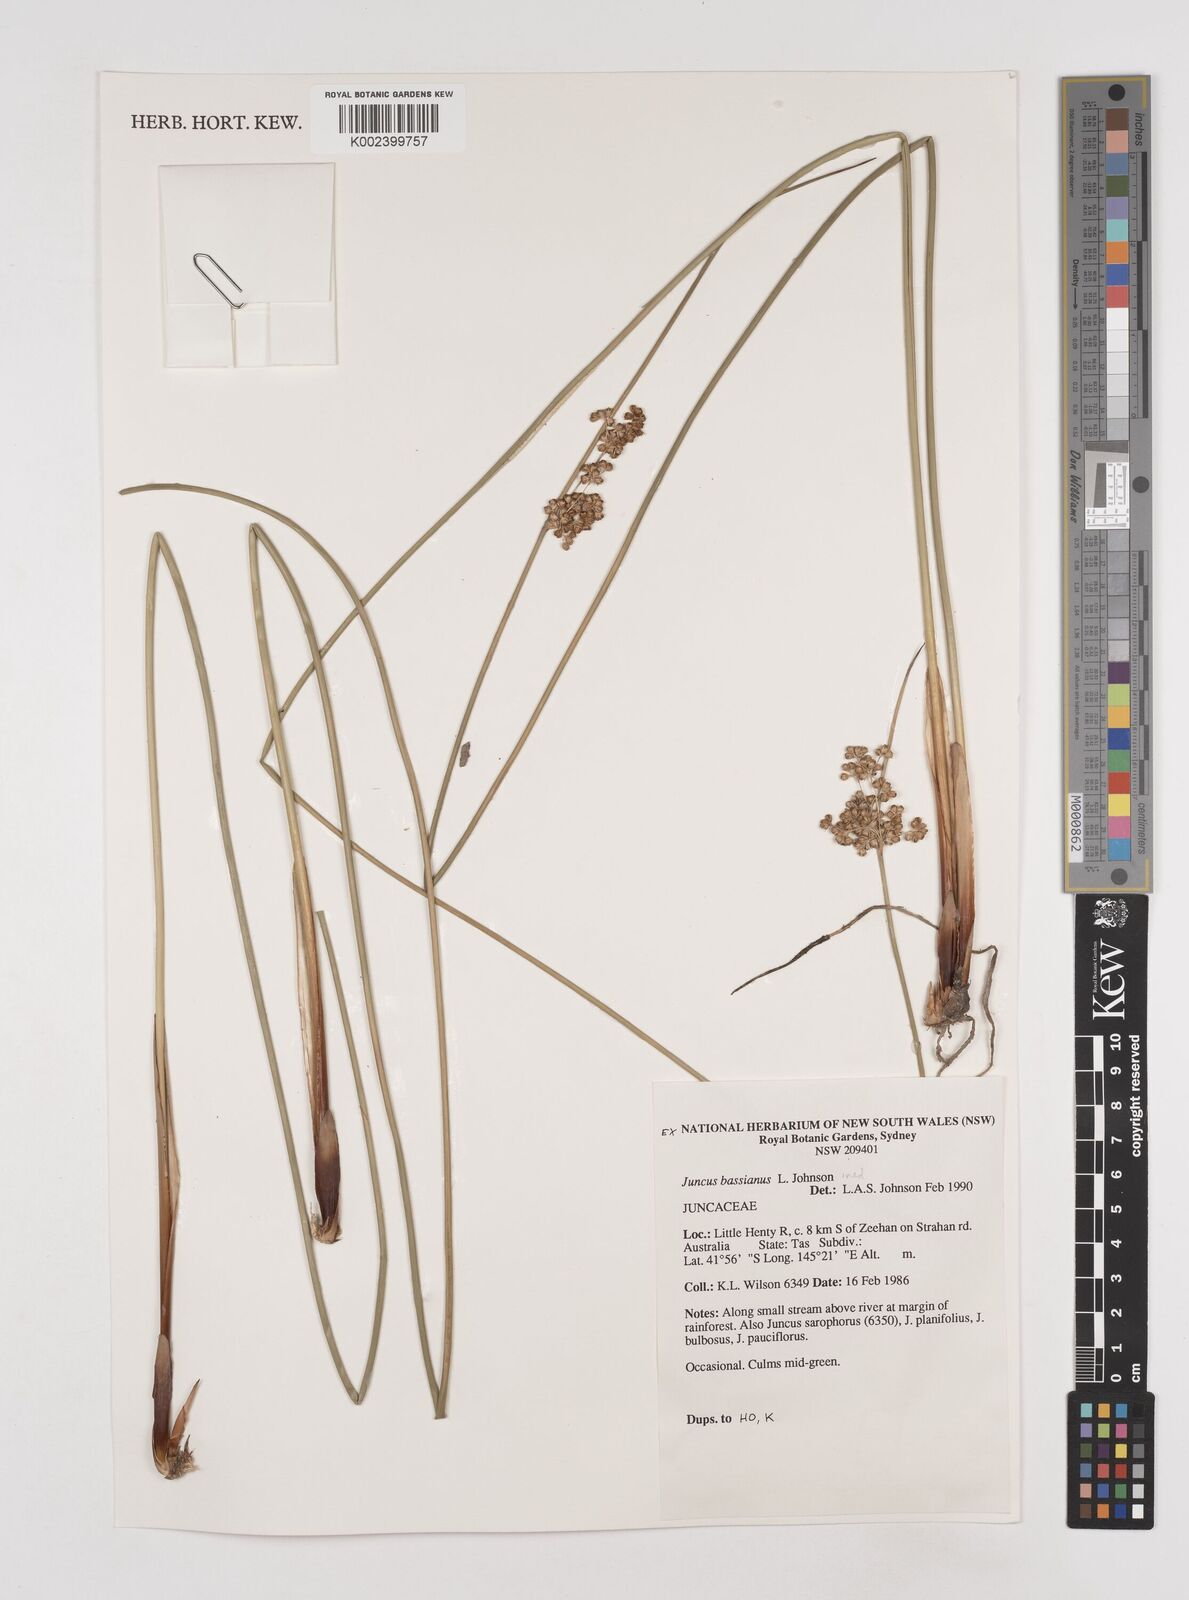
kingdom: Plantae
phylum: Tracheophyta
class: Liliopsida
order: Poales
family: Juncaceae
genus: Juncus
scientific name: Juncus bassianus
